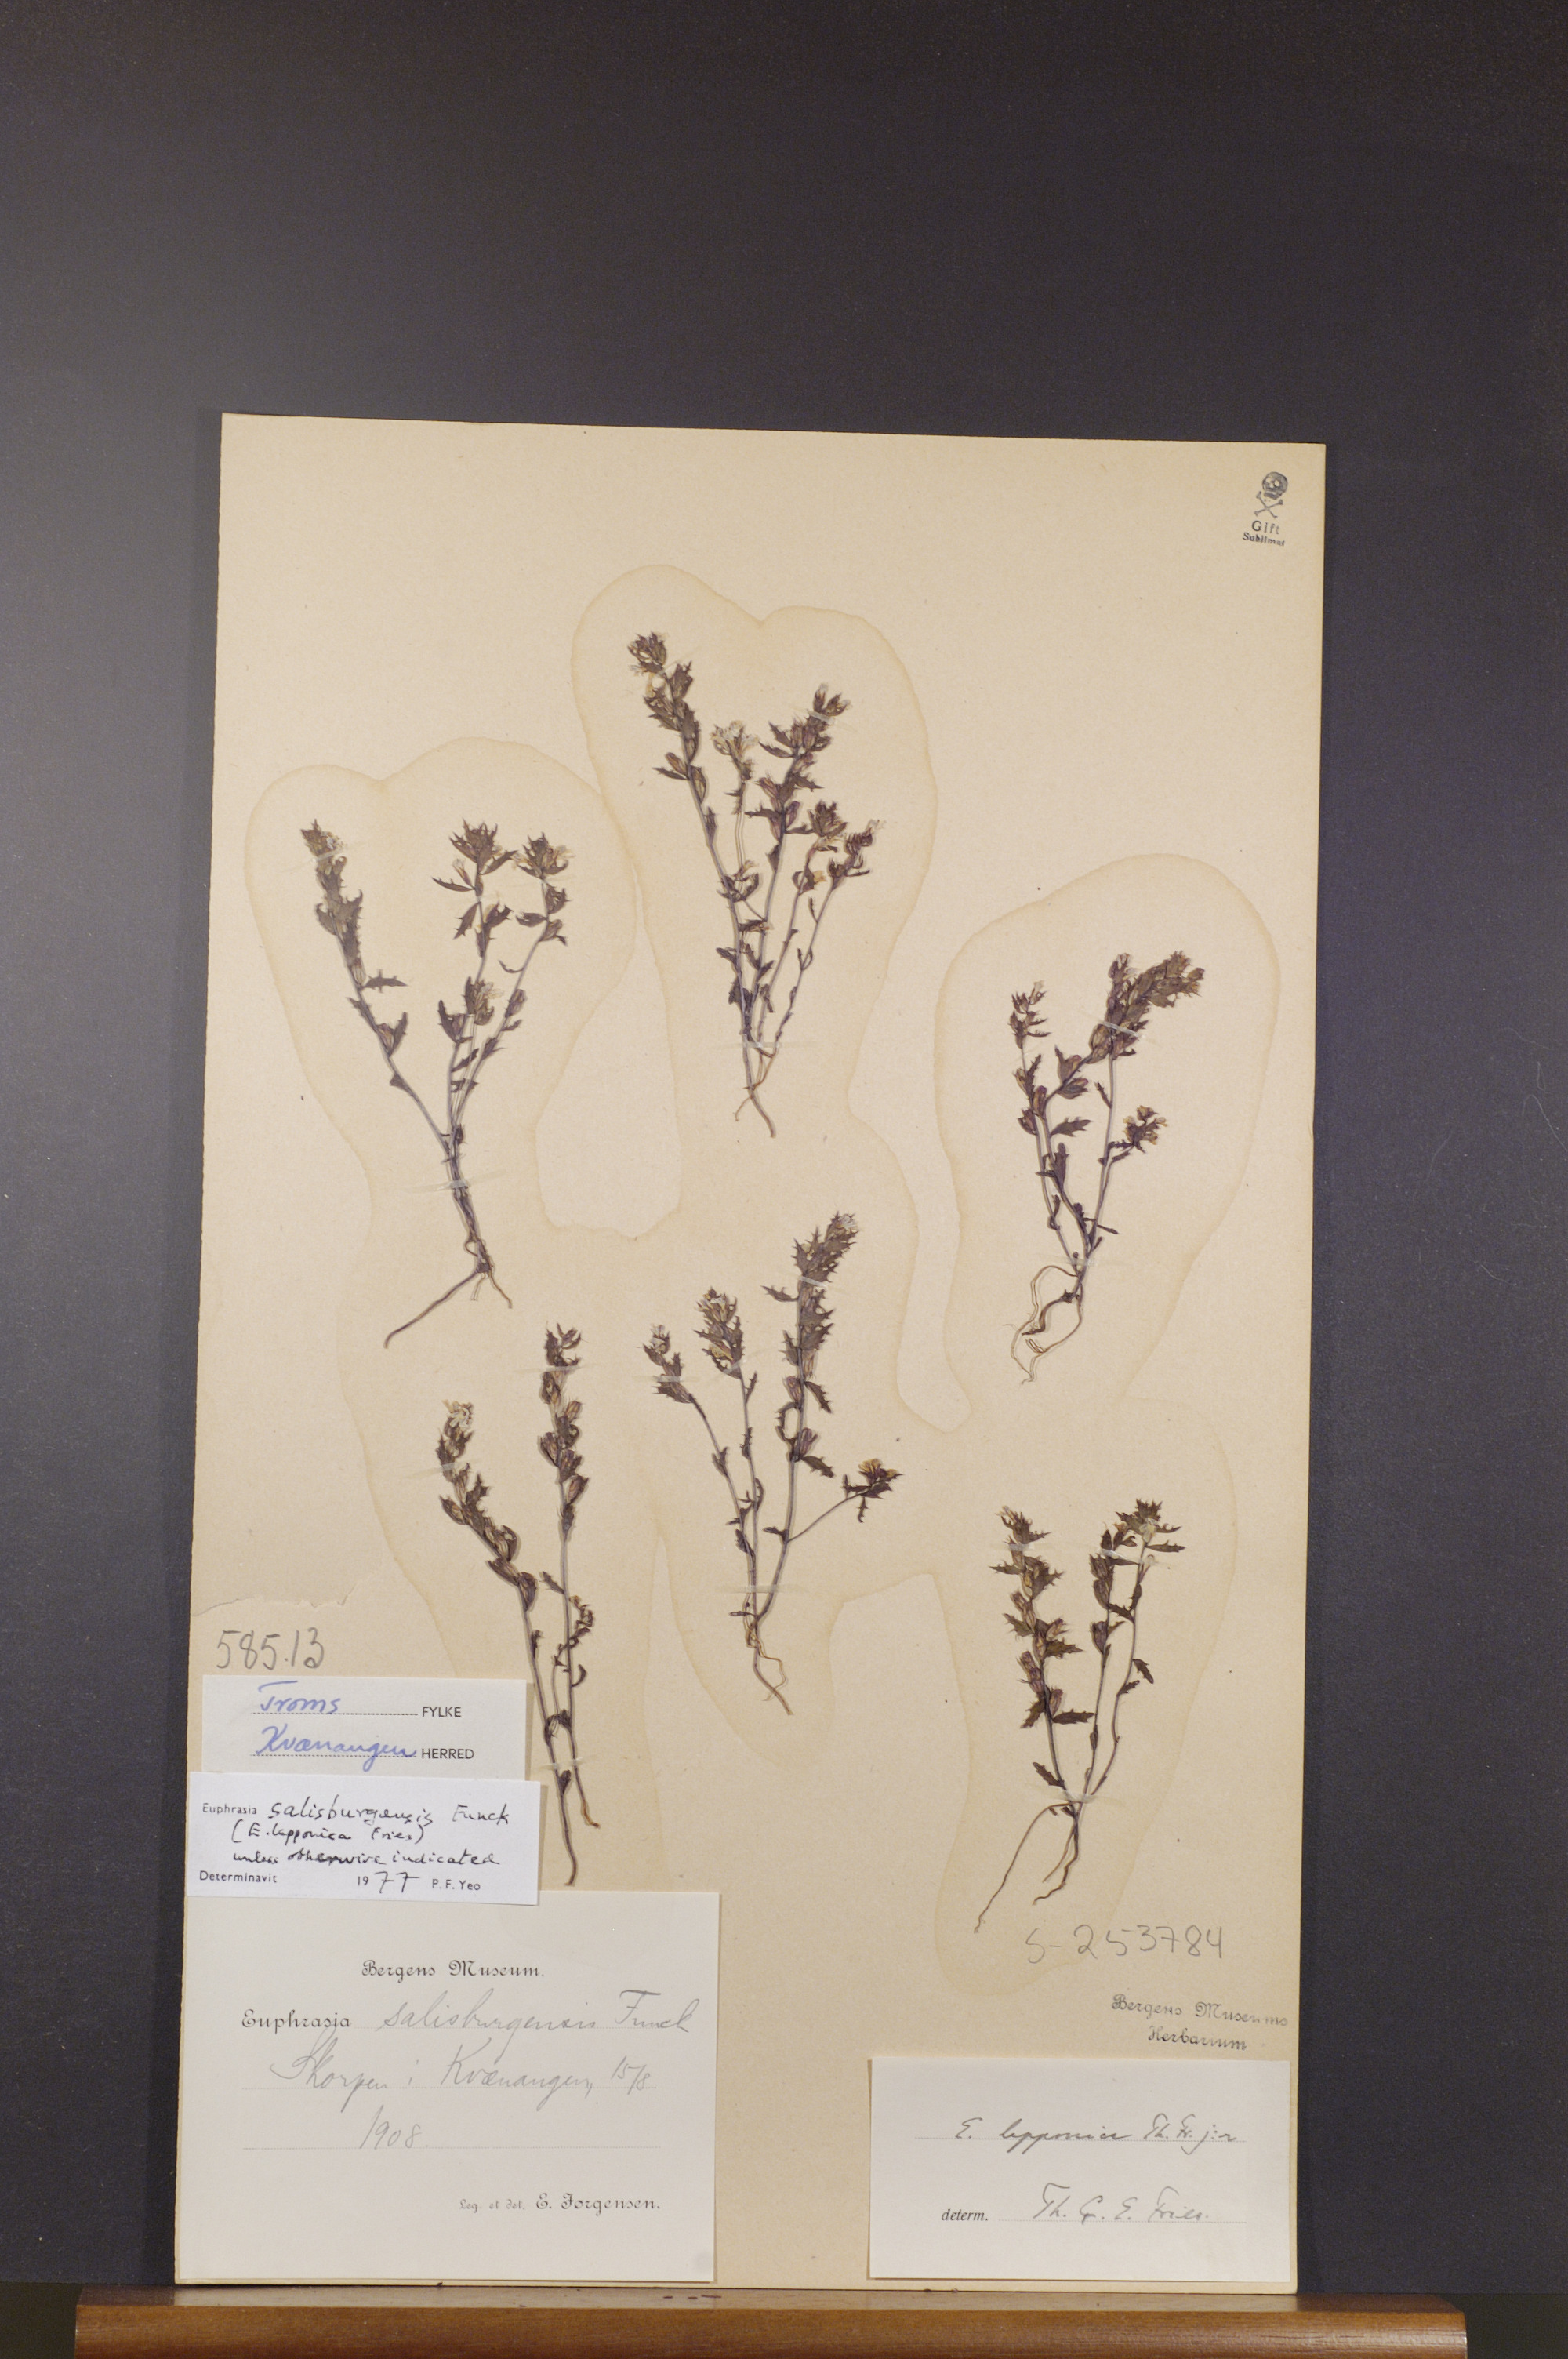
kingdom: Plantae
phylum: Tracheophyta
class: Magnoliopsida
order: Lamiales
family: Orobanchaceae
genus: Euphrasia
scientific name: Euphrasia salisburgensis
